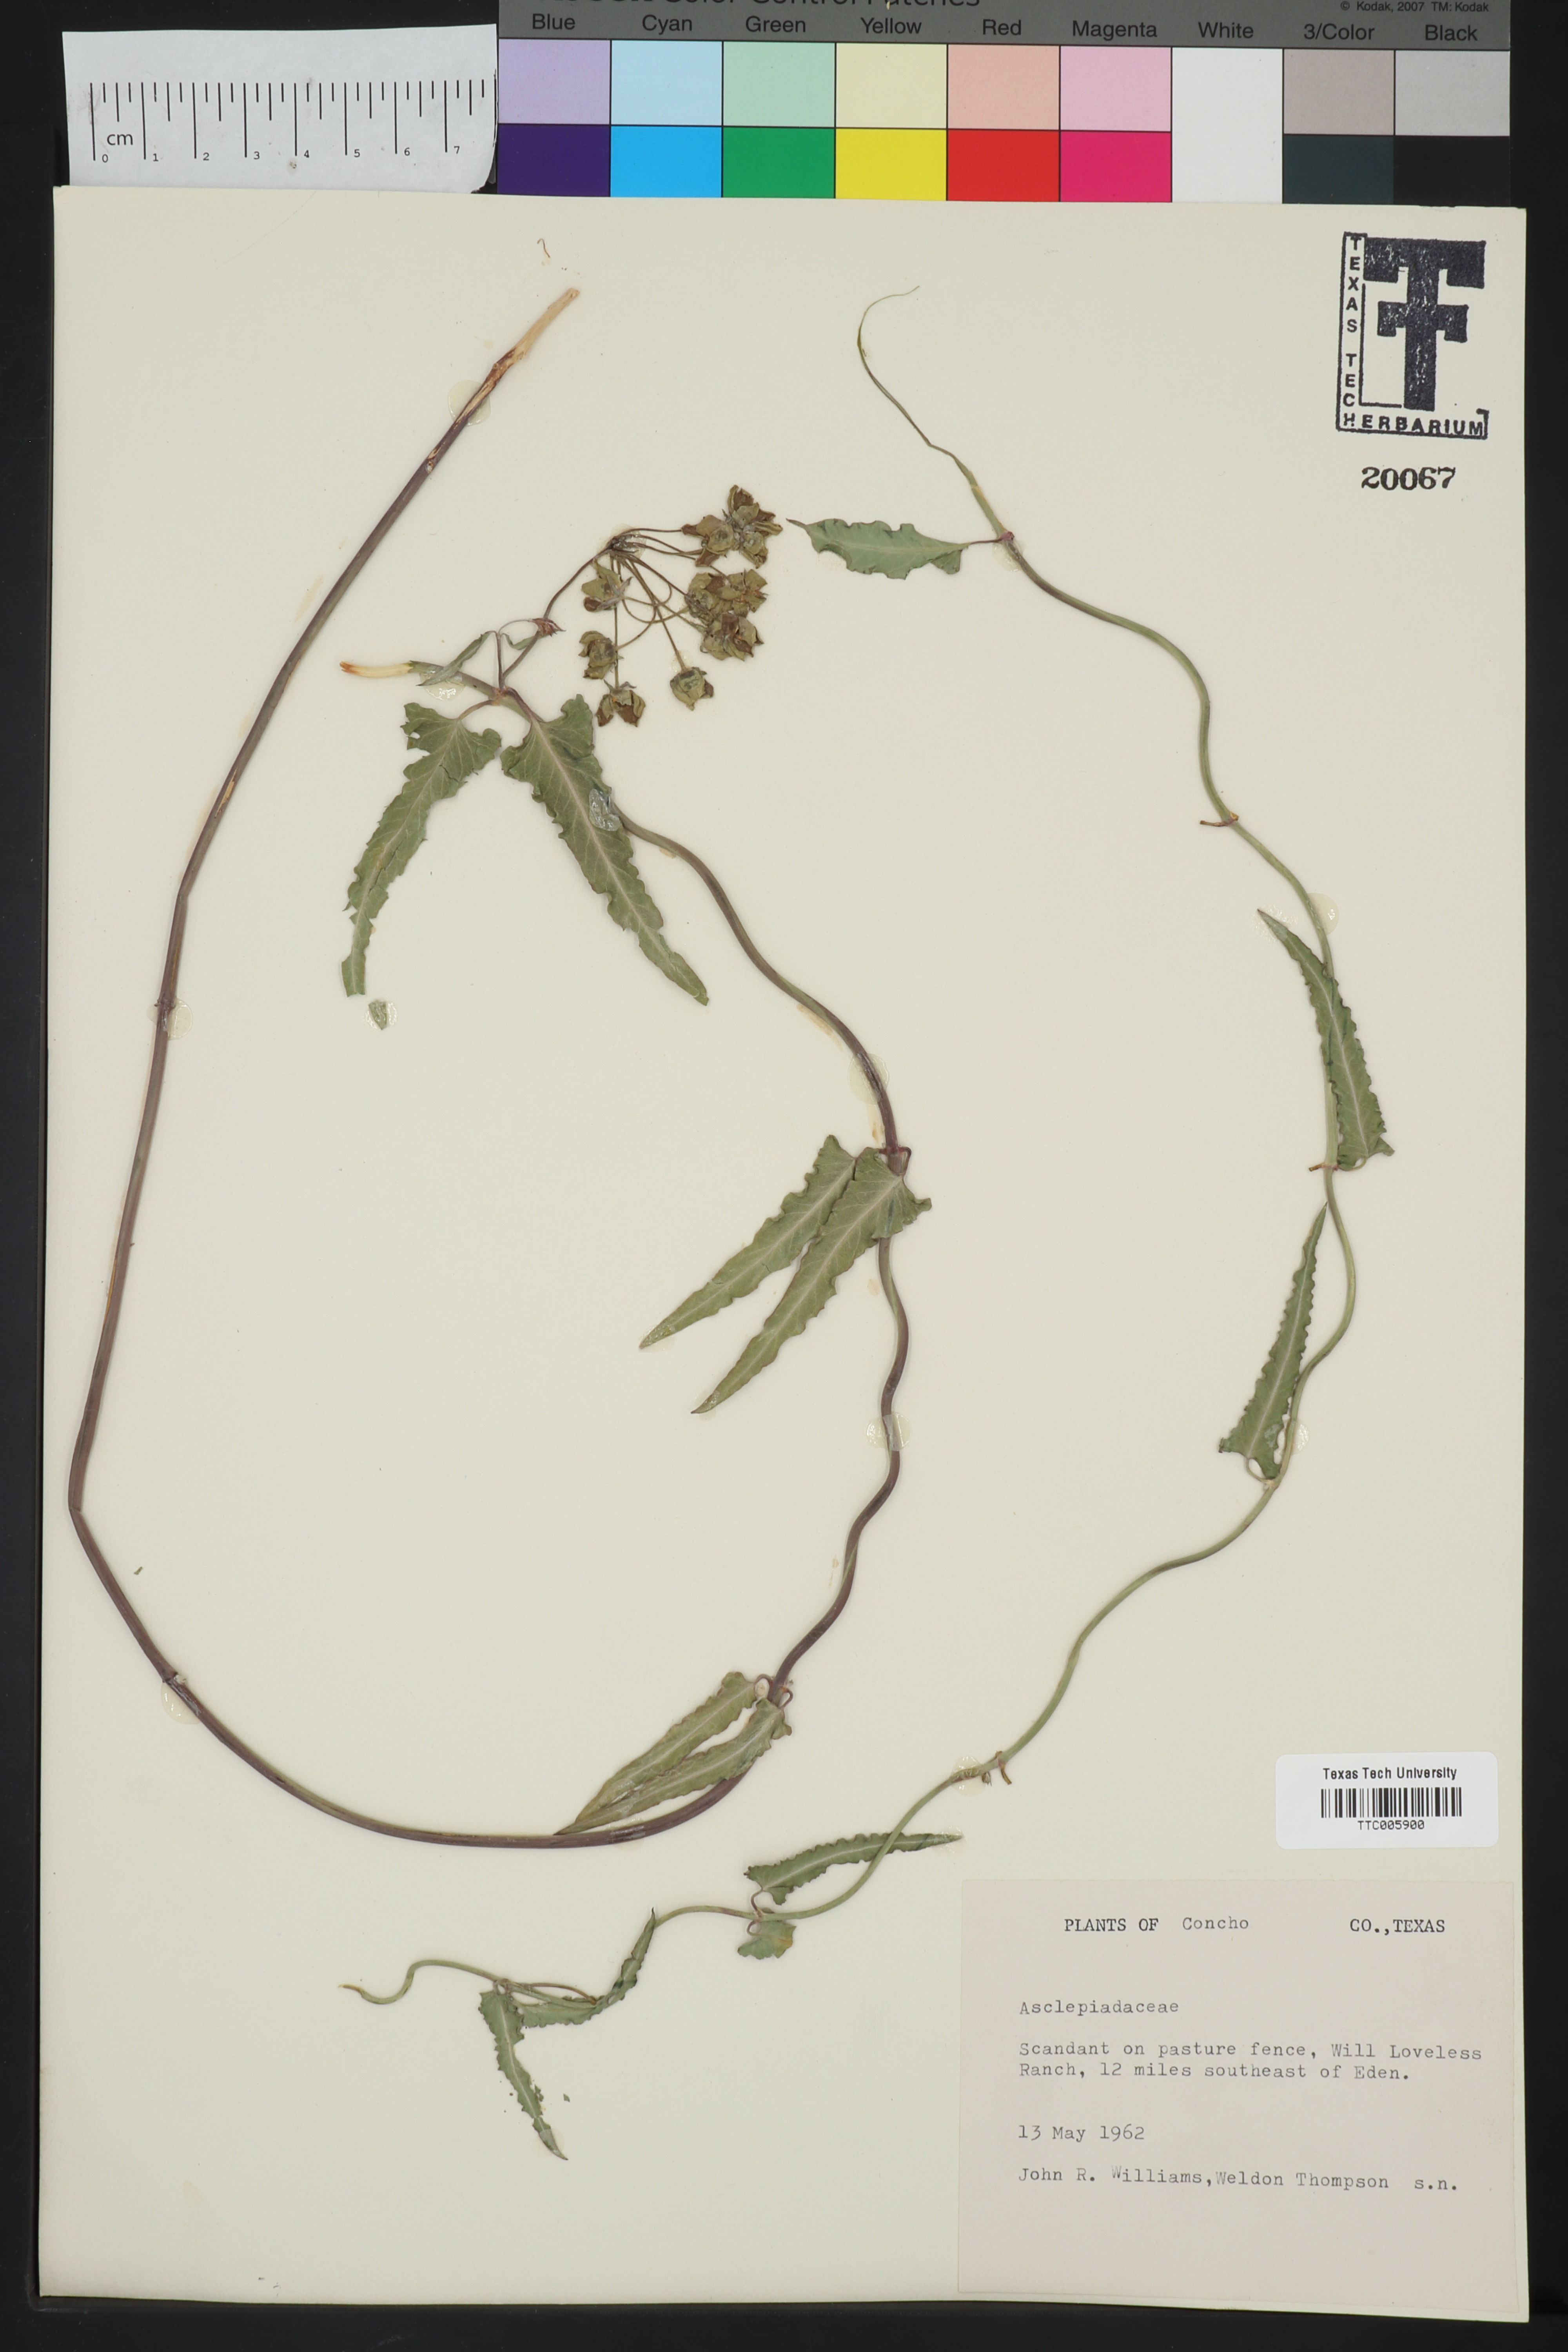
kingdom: Plantae
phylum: Tracheophyta
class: Magnoliopsida
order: Gentianales
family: Asclepiadaceae
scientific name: Asclepiadaceae
